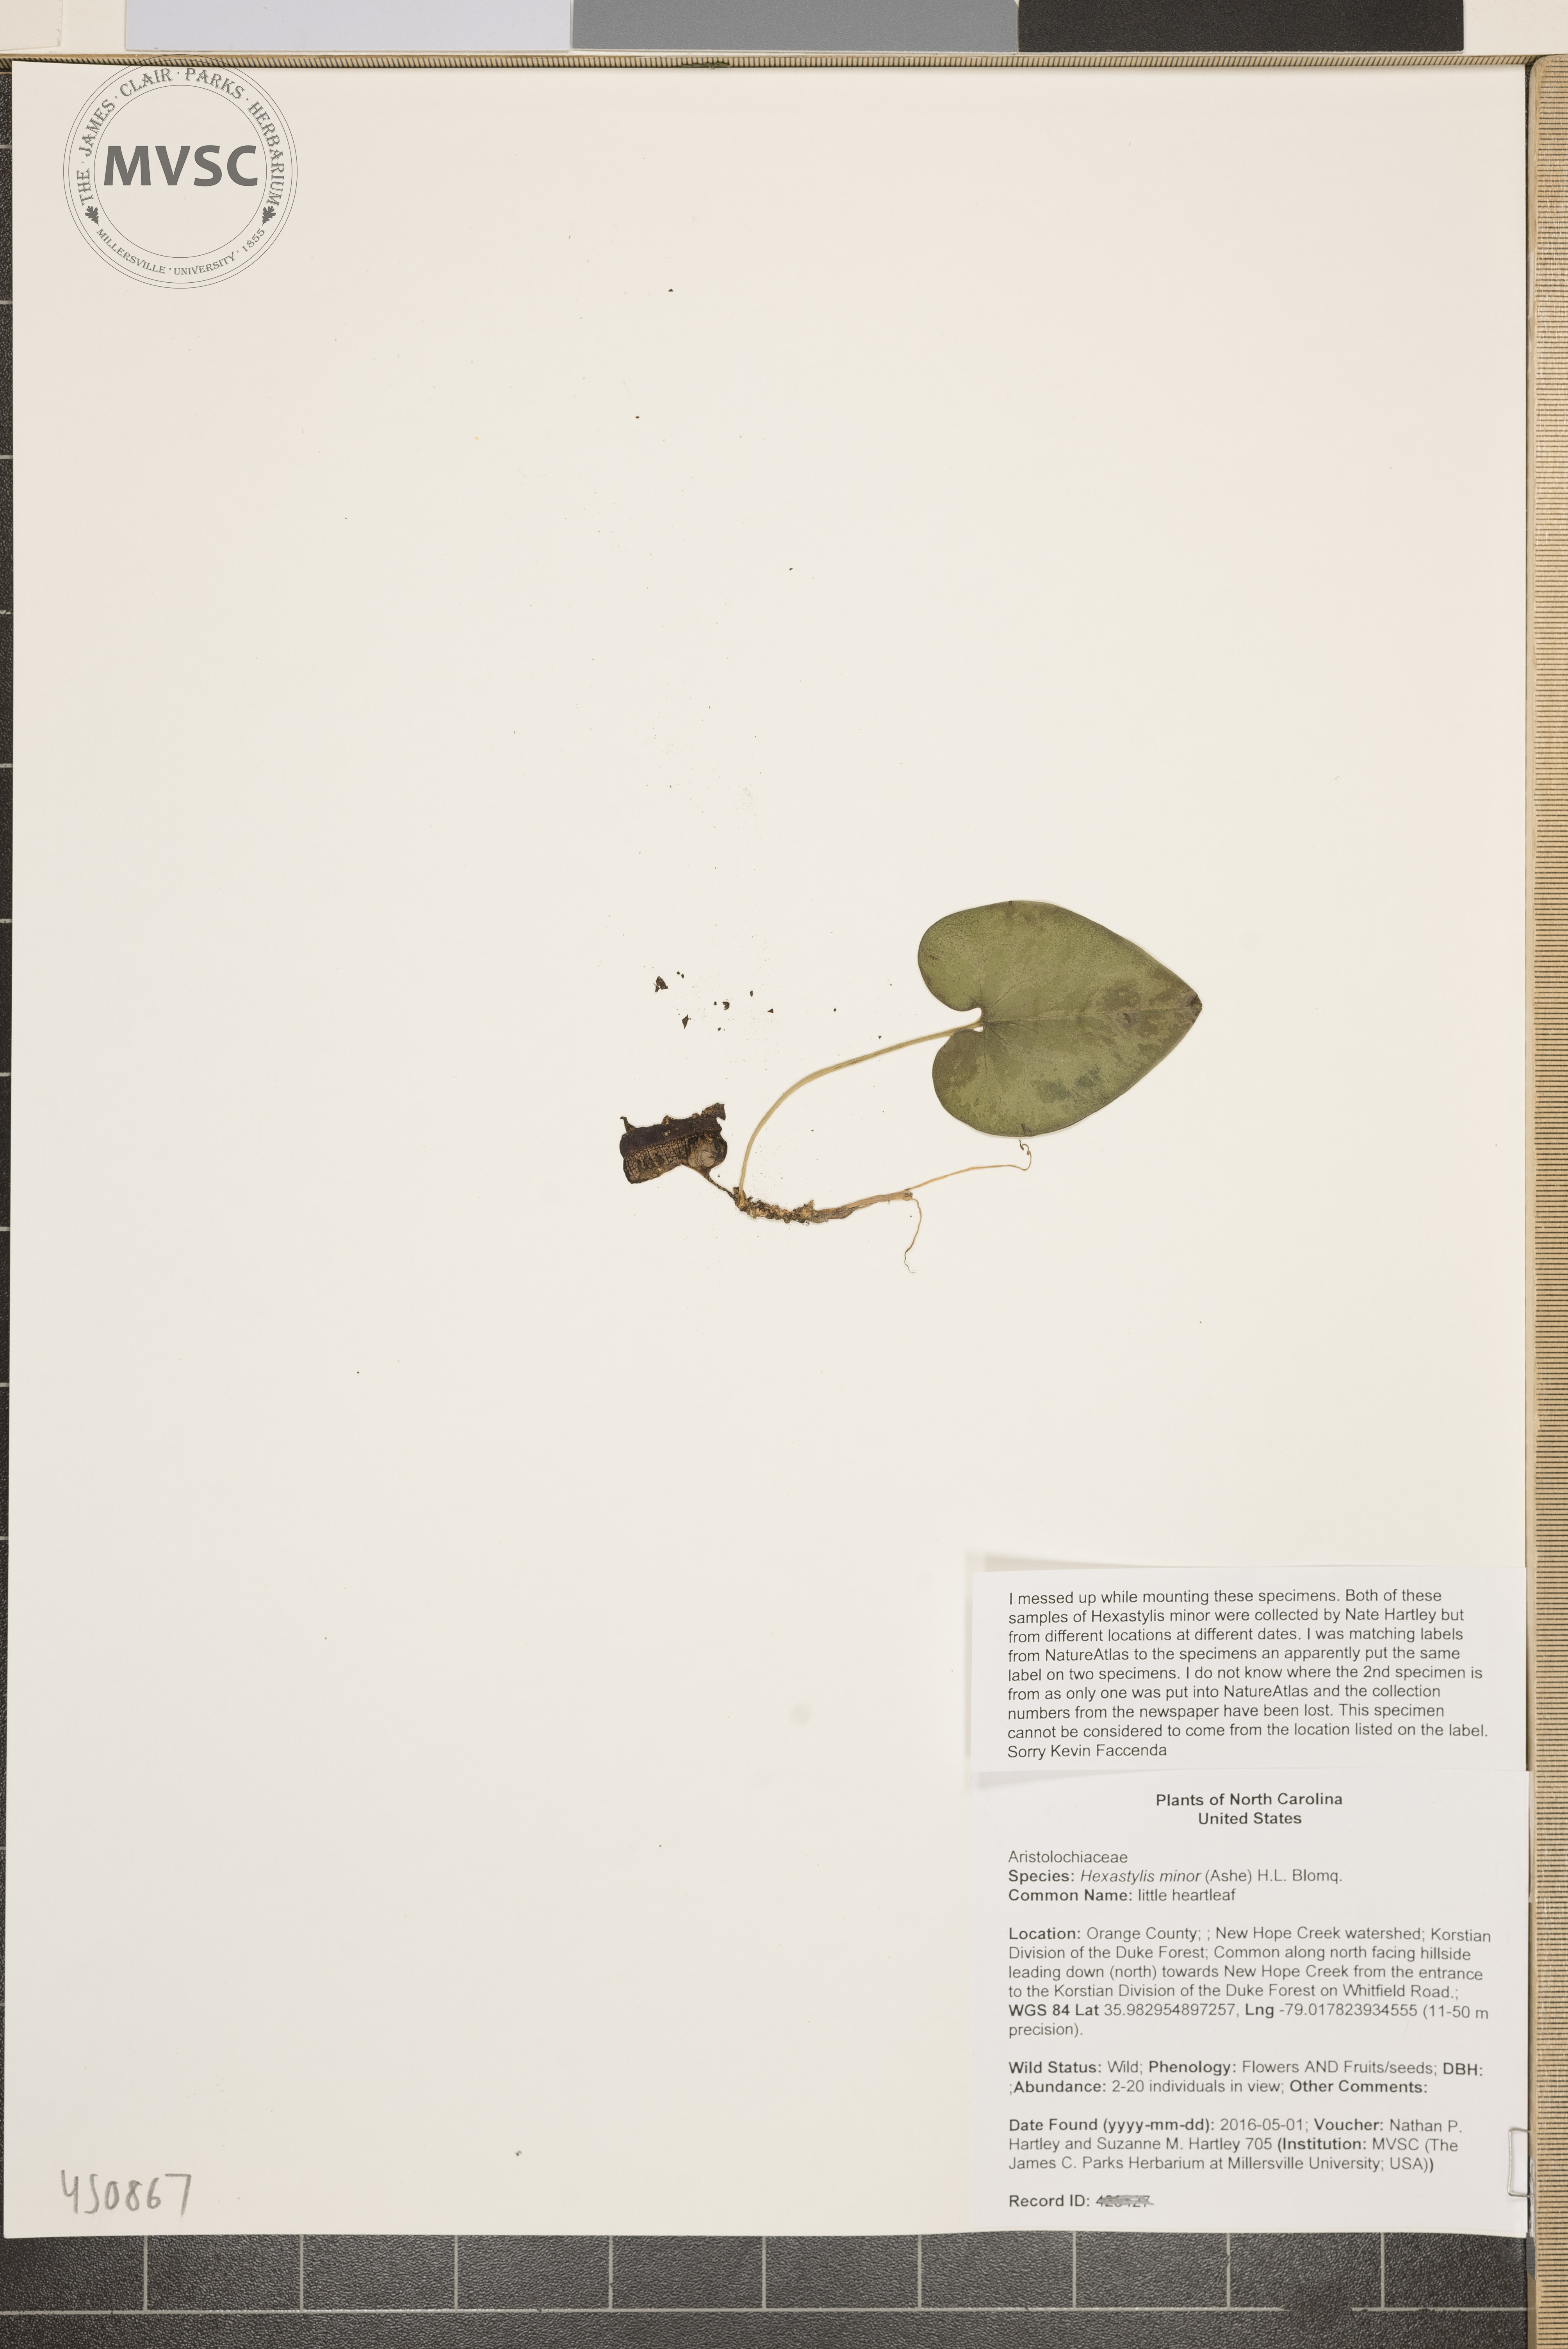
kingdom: Plantae
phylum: Tracheophyta
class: Magnoliopsida
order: Piperales
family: Aristolochiaceae
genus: Hexastylis
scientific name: Hexastylis minor
